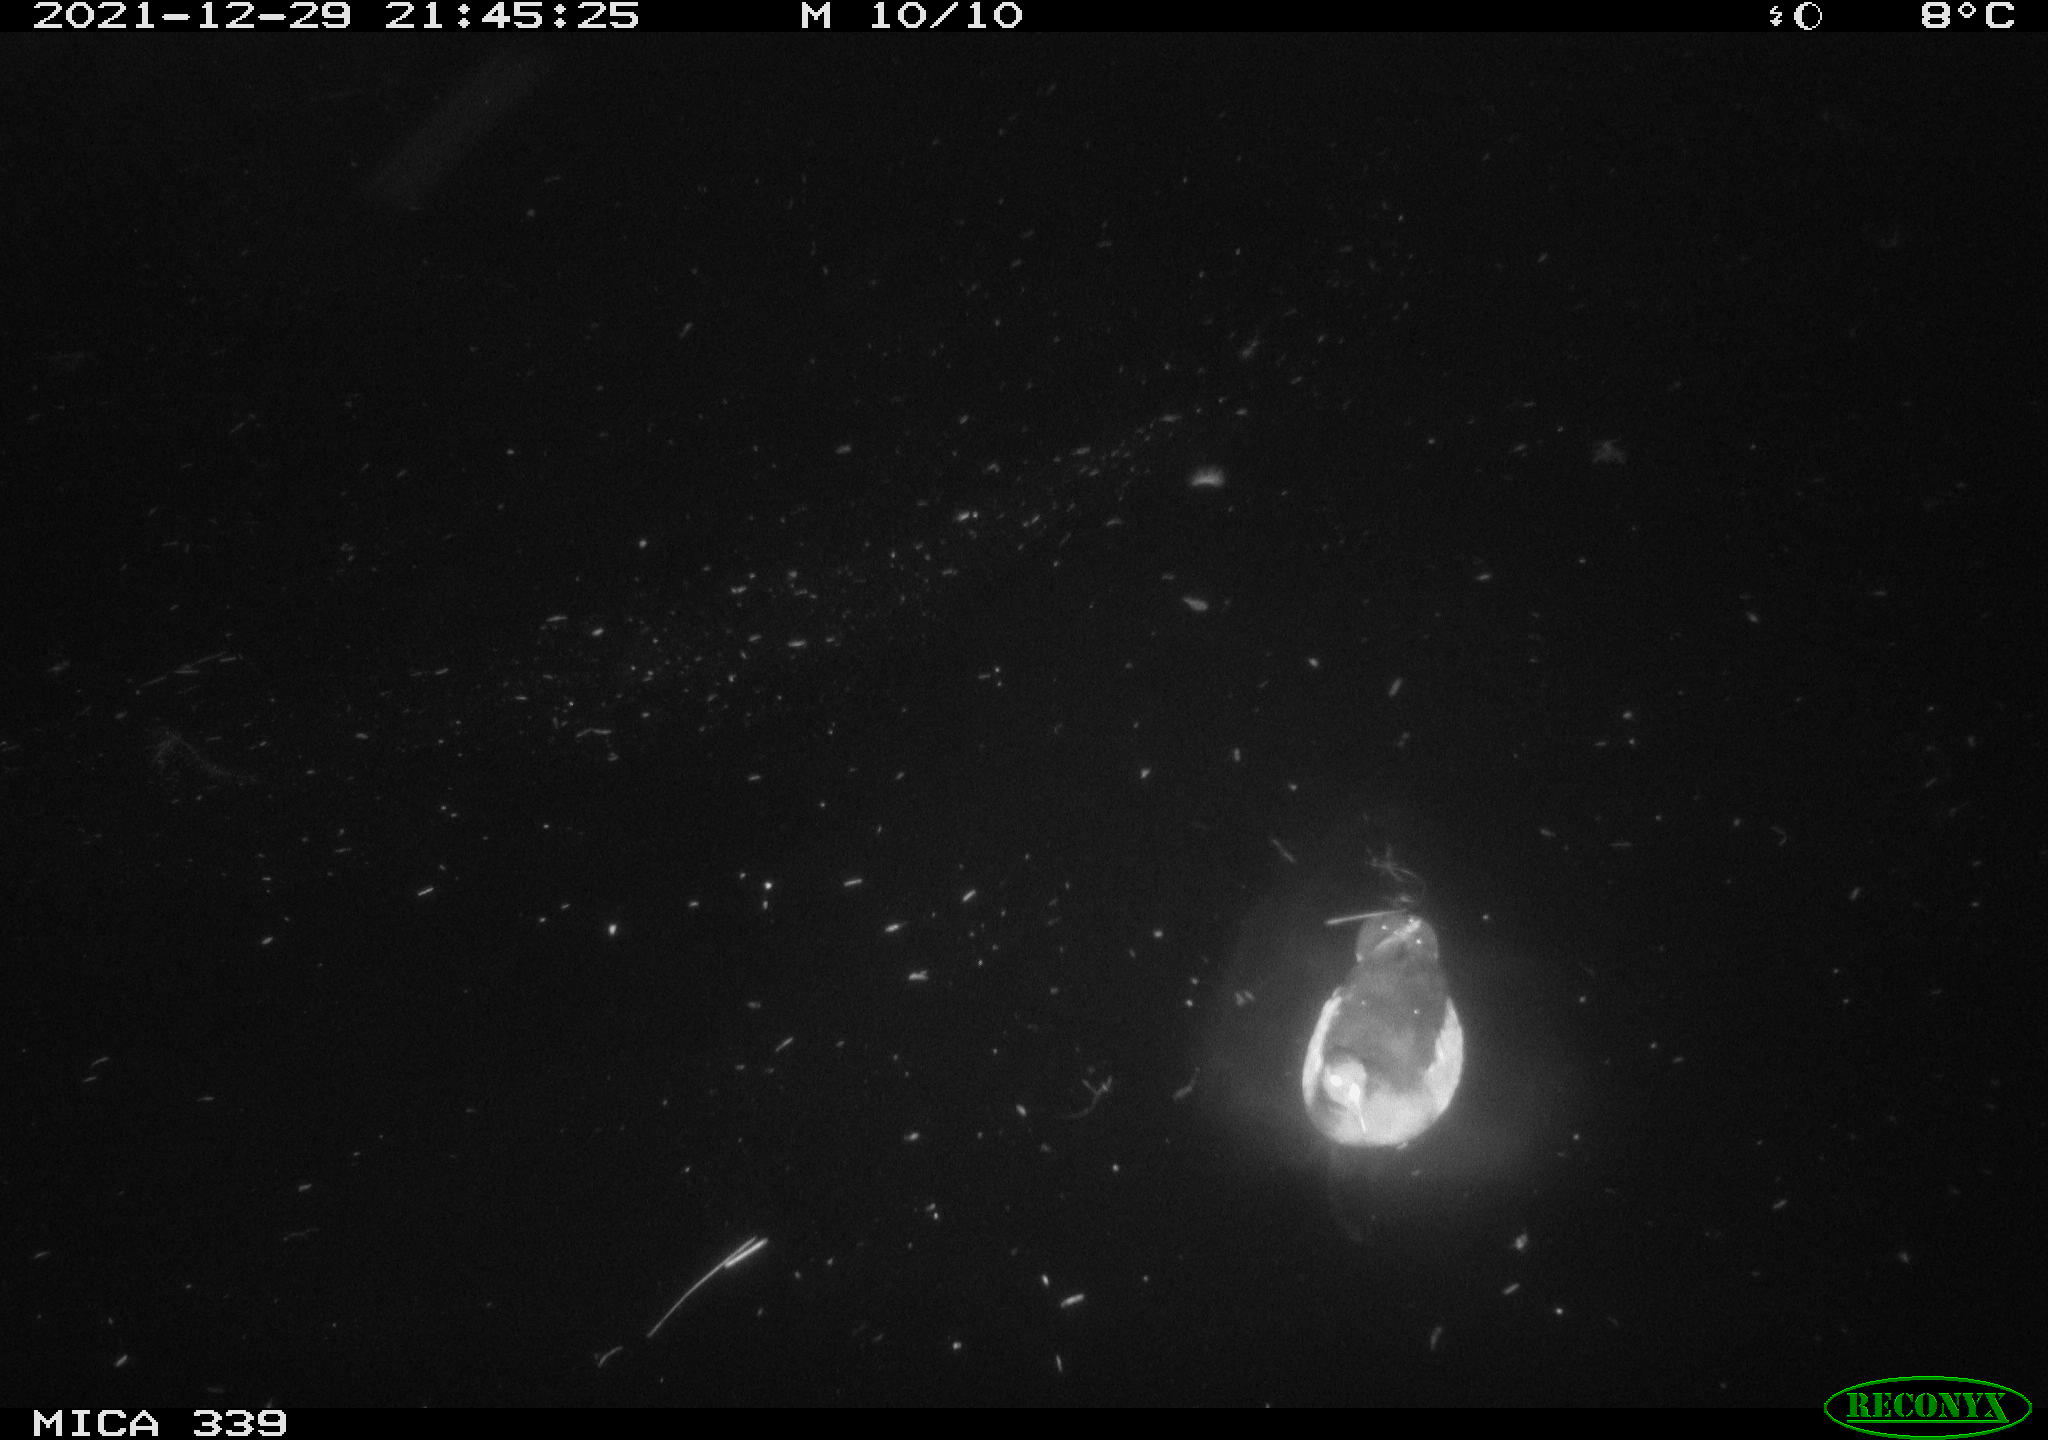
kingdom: Animalia
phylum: Chordata
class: Aves
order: Gruiformes
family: Rallidae
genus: Gallinula
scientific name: Gallinula chloropus
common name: Common moorhen
